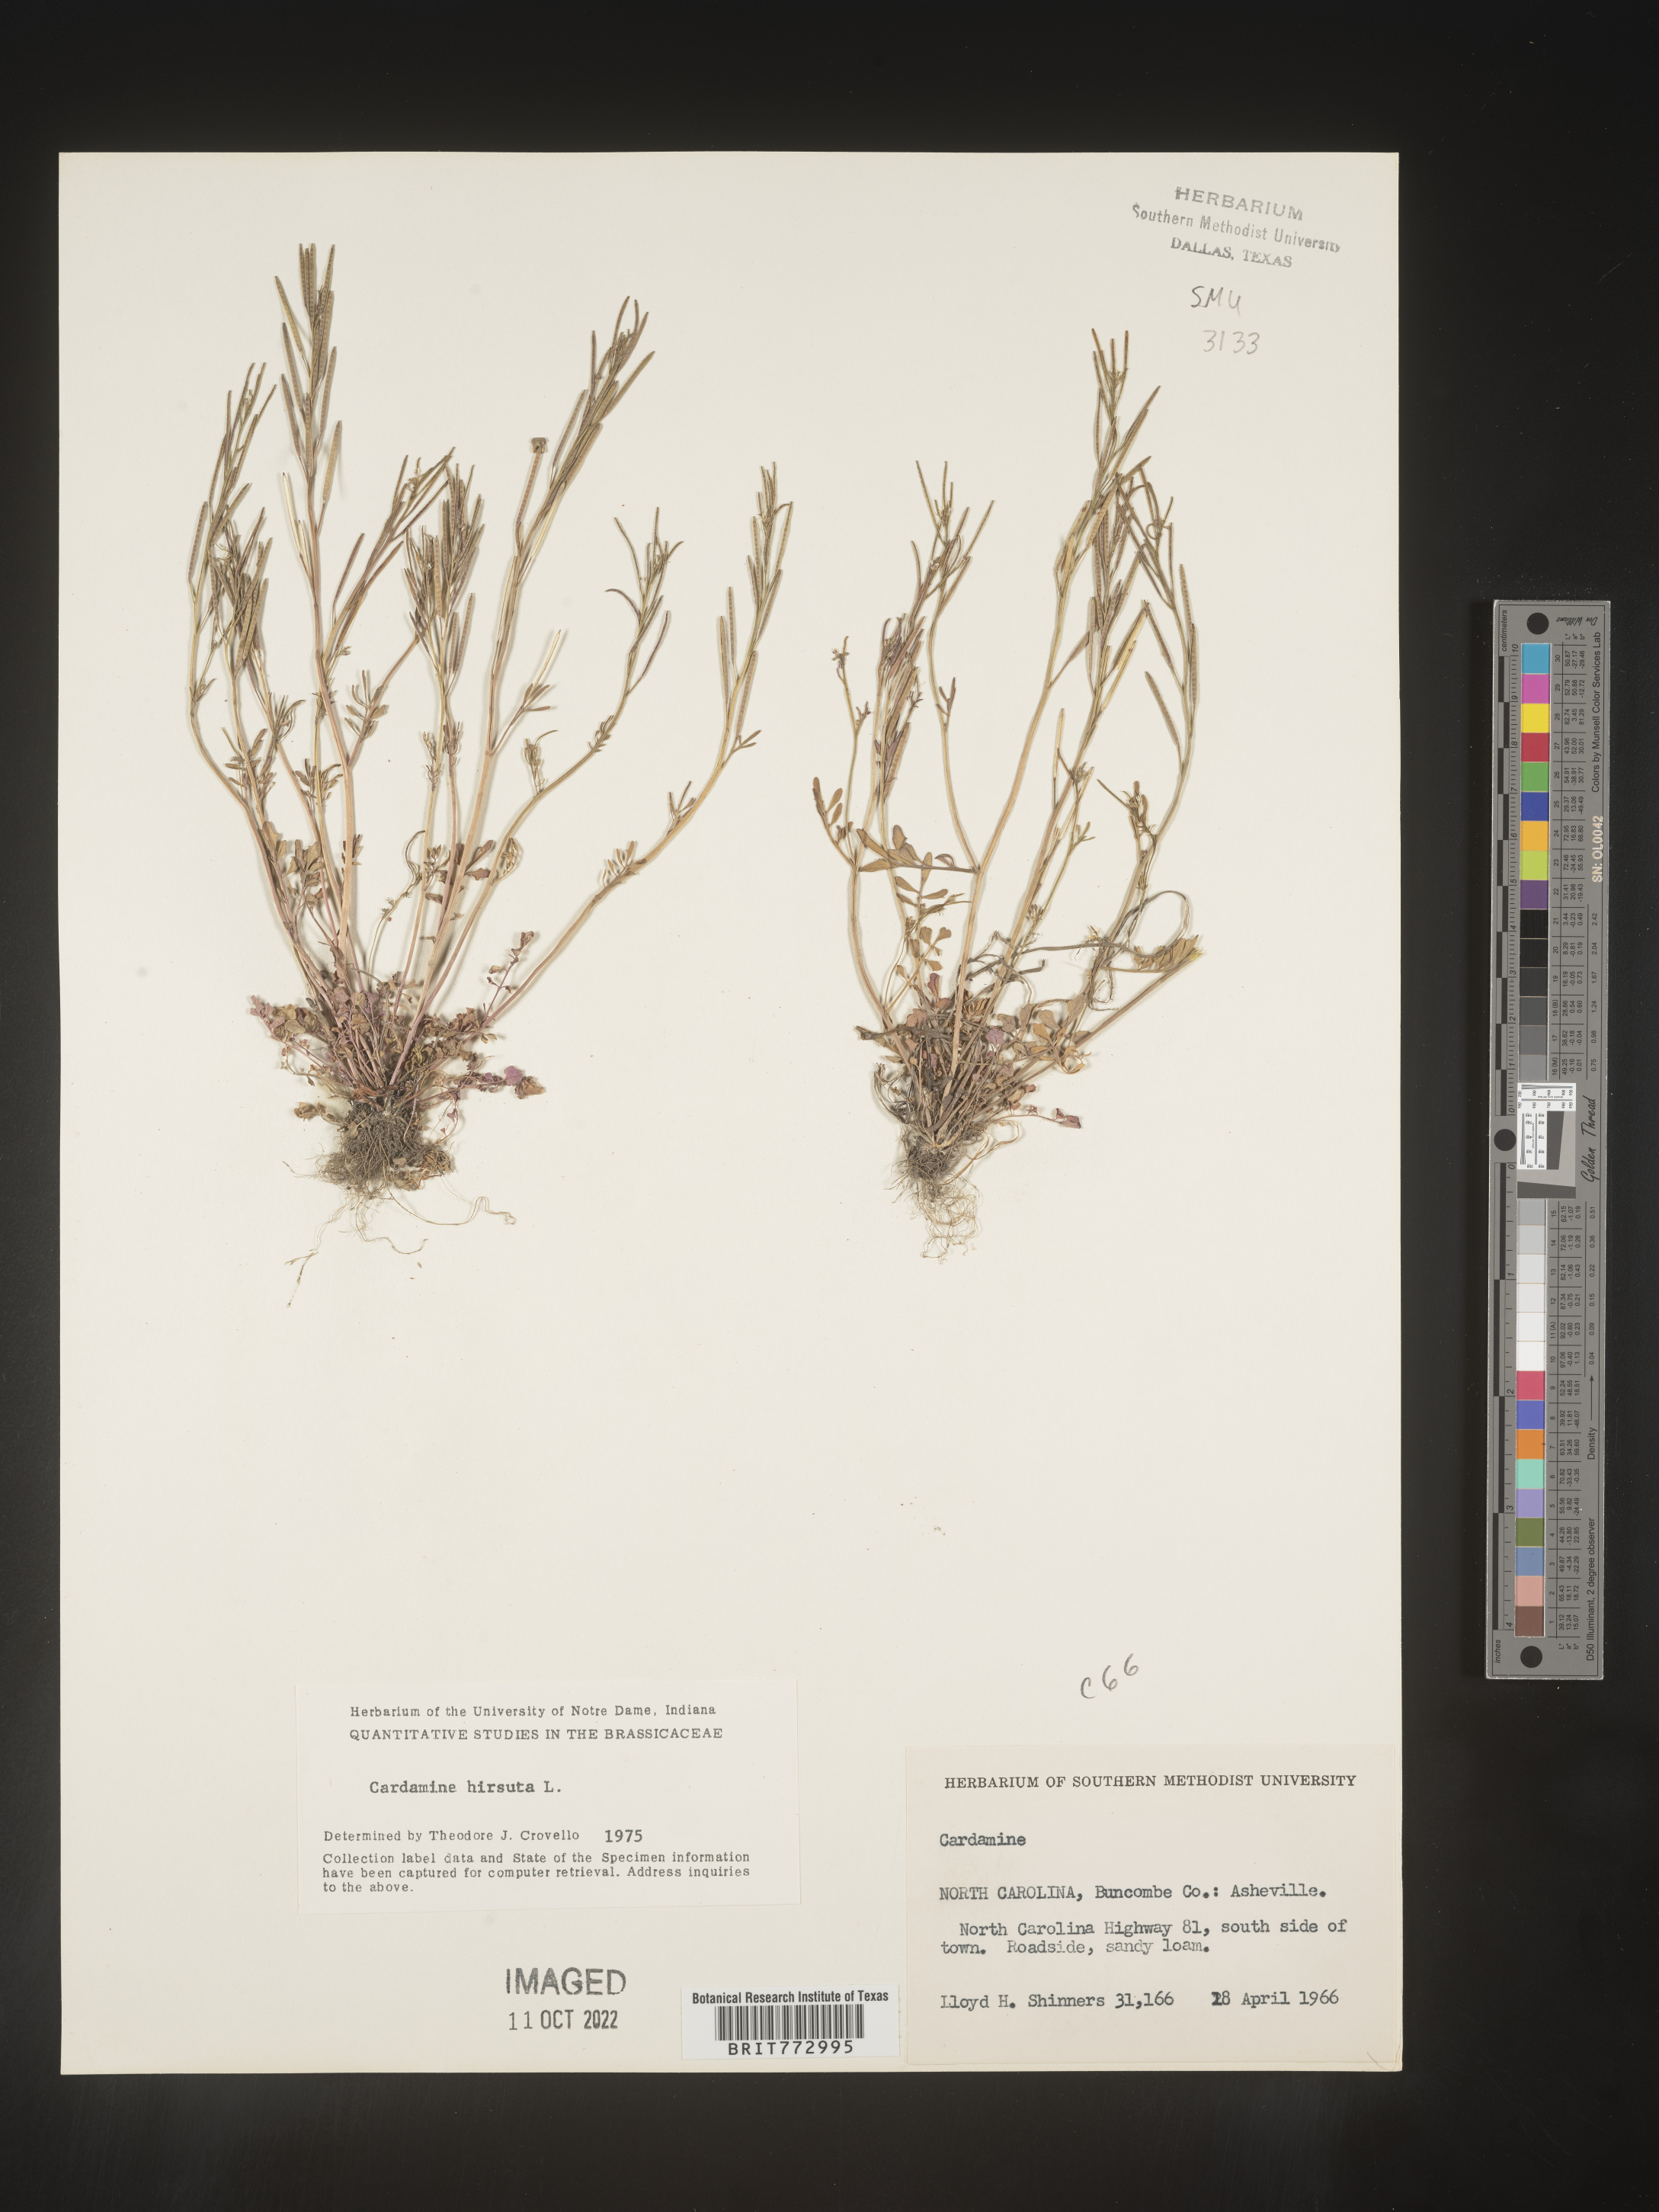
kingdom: Plantae
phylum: Tracheophyta
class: Magnoliopsida
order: Brassicales
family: Brassicaceae
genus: Cardamine
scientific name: Cardamine hirsuta
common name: Hairy bittercress
